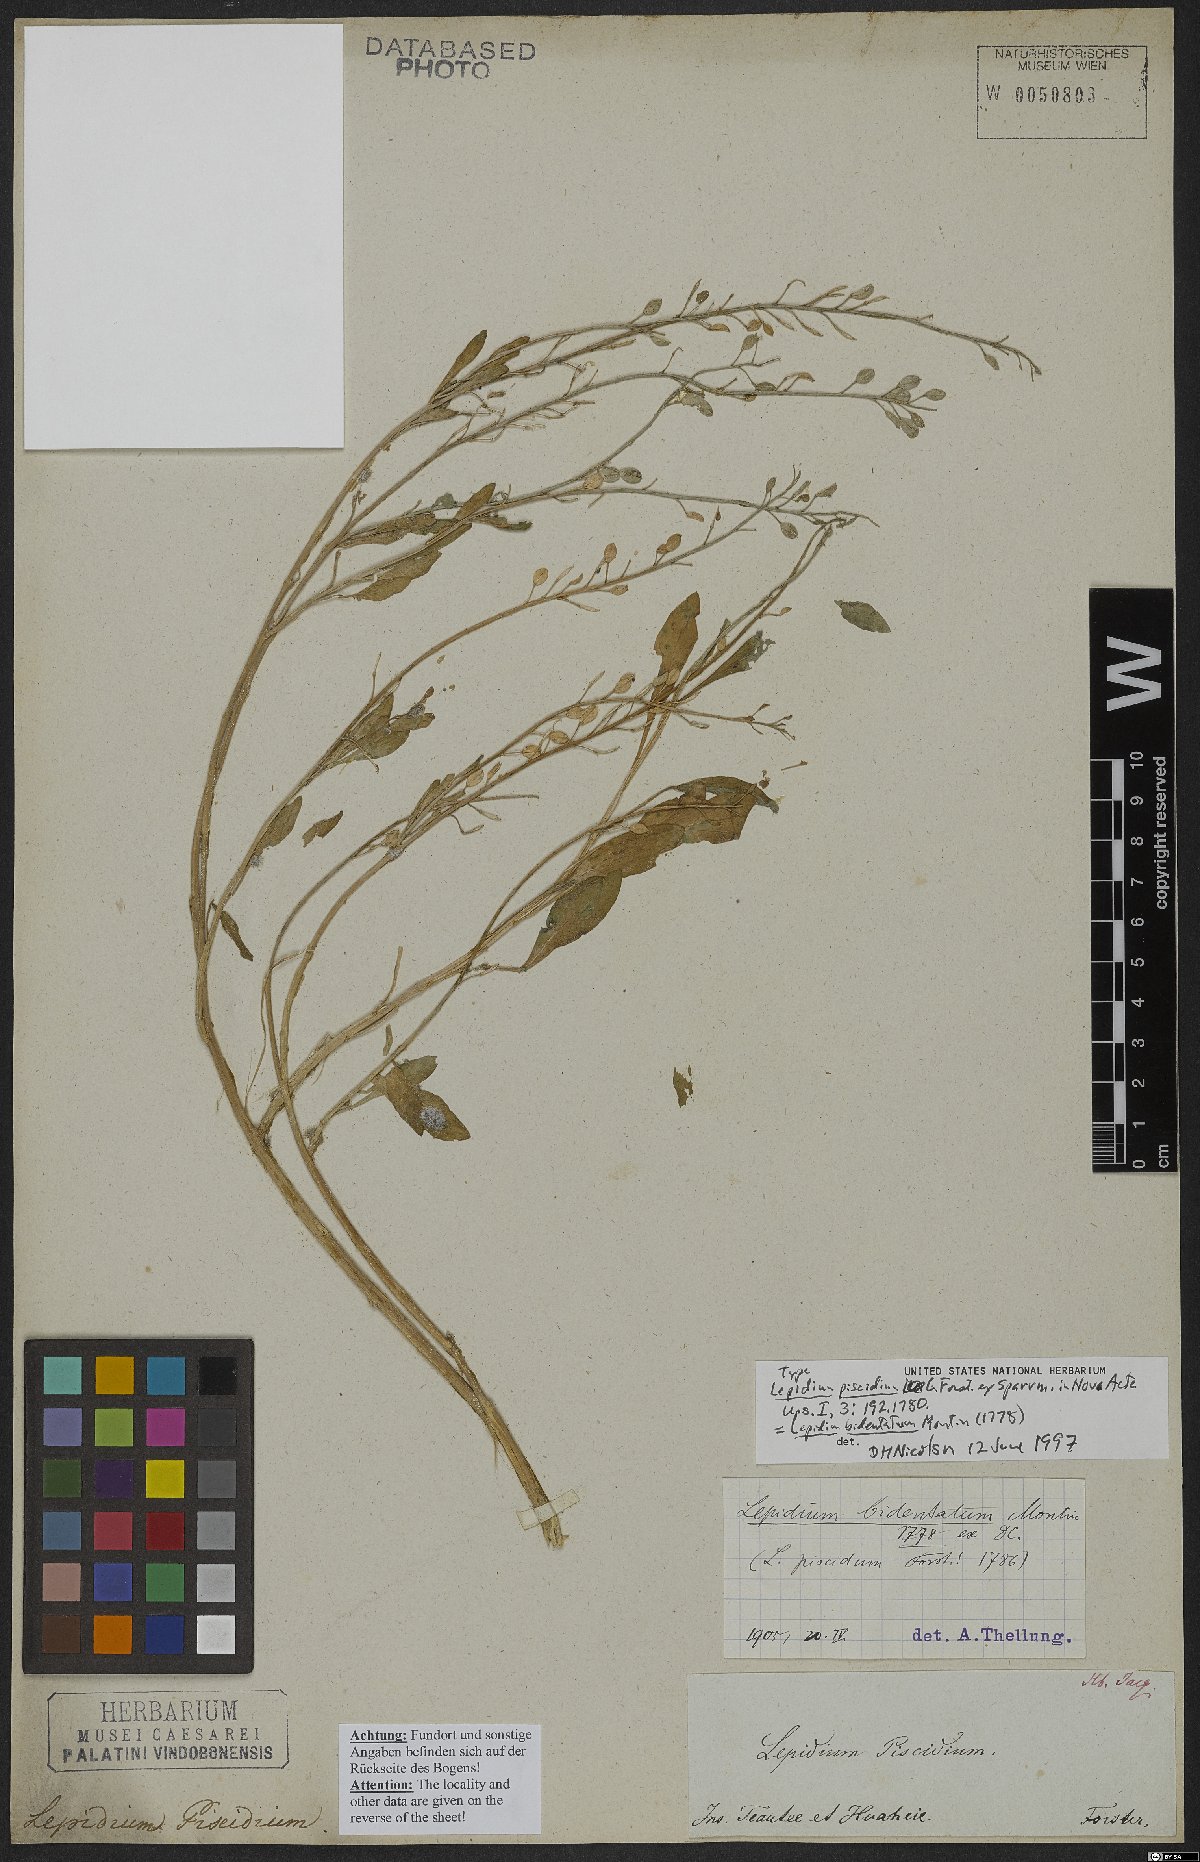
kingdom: Plantae
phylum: Tracheophyta
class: Magnoliopsida
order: Brassicales
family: Brassicaceae
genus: Lepidium
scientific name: Lepidium bidentatum
